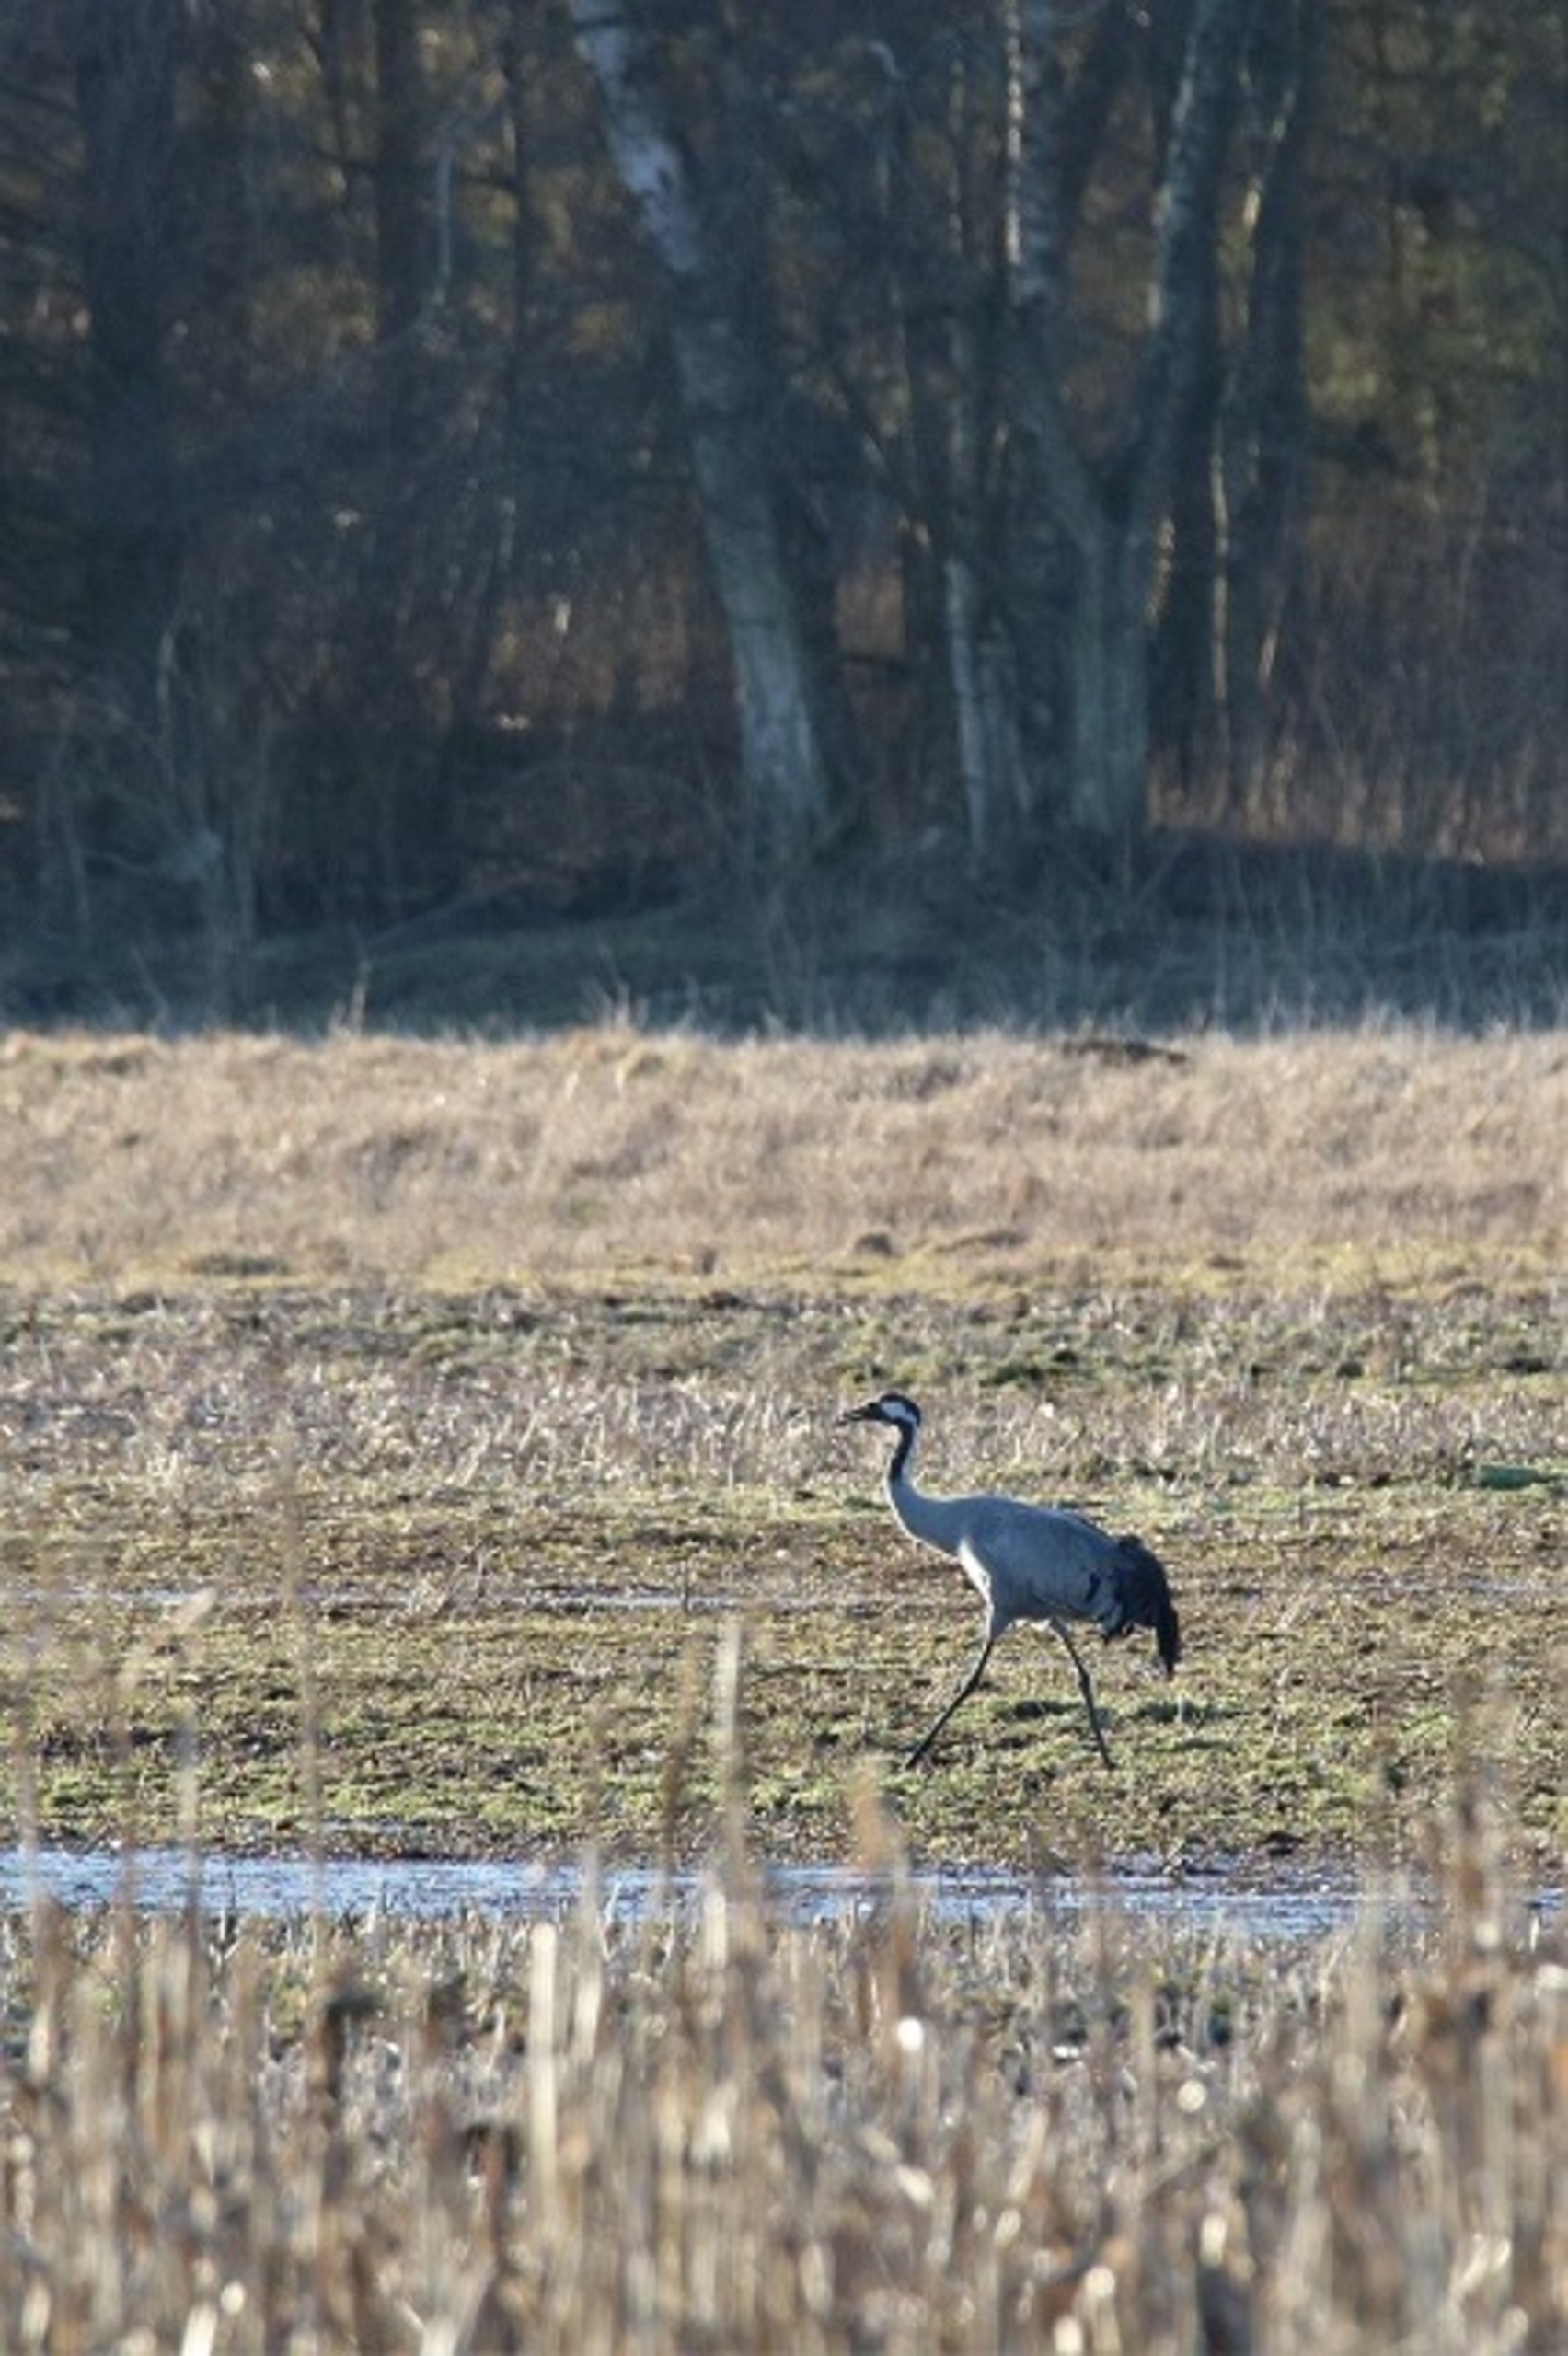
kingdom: Animalia
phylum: Chordata
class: Aves
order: Gruiformes
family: Gruidae
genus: Grus
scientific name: Grus grus
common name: Trane
